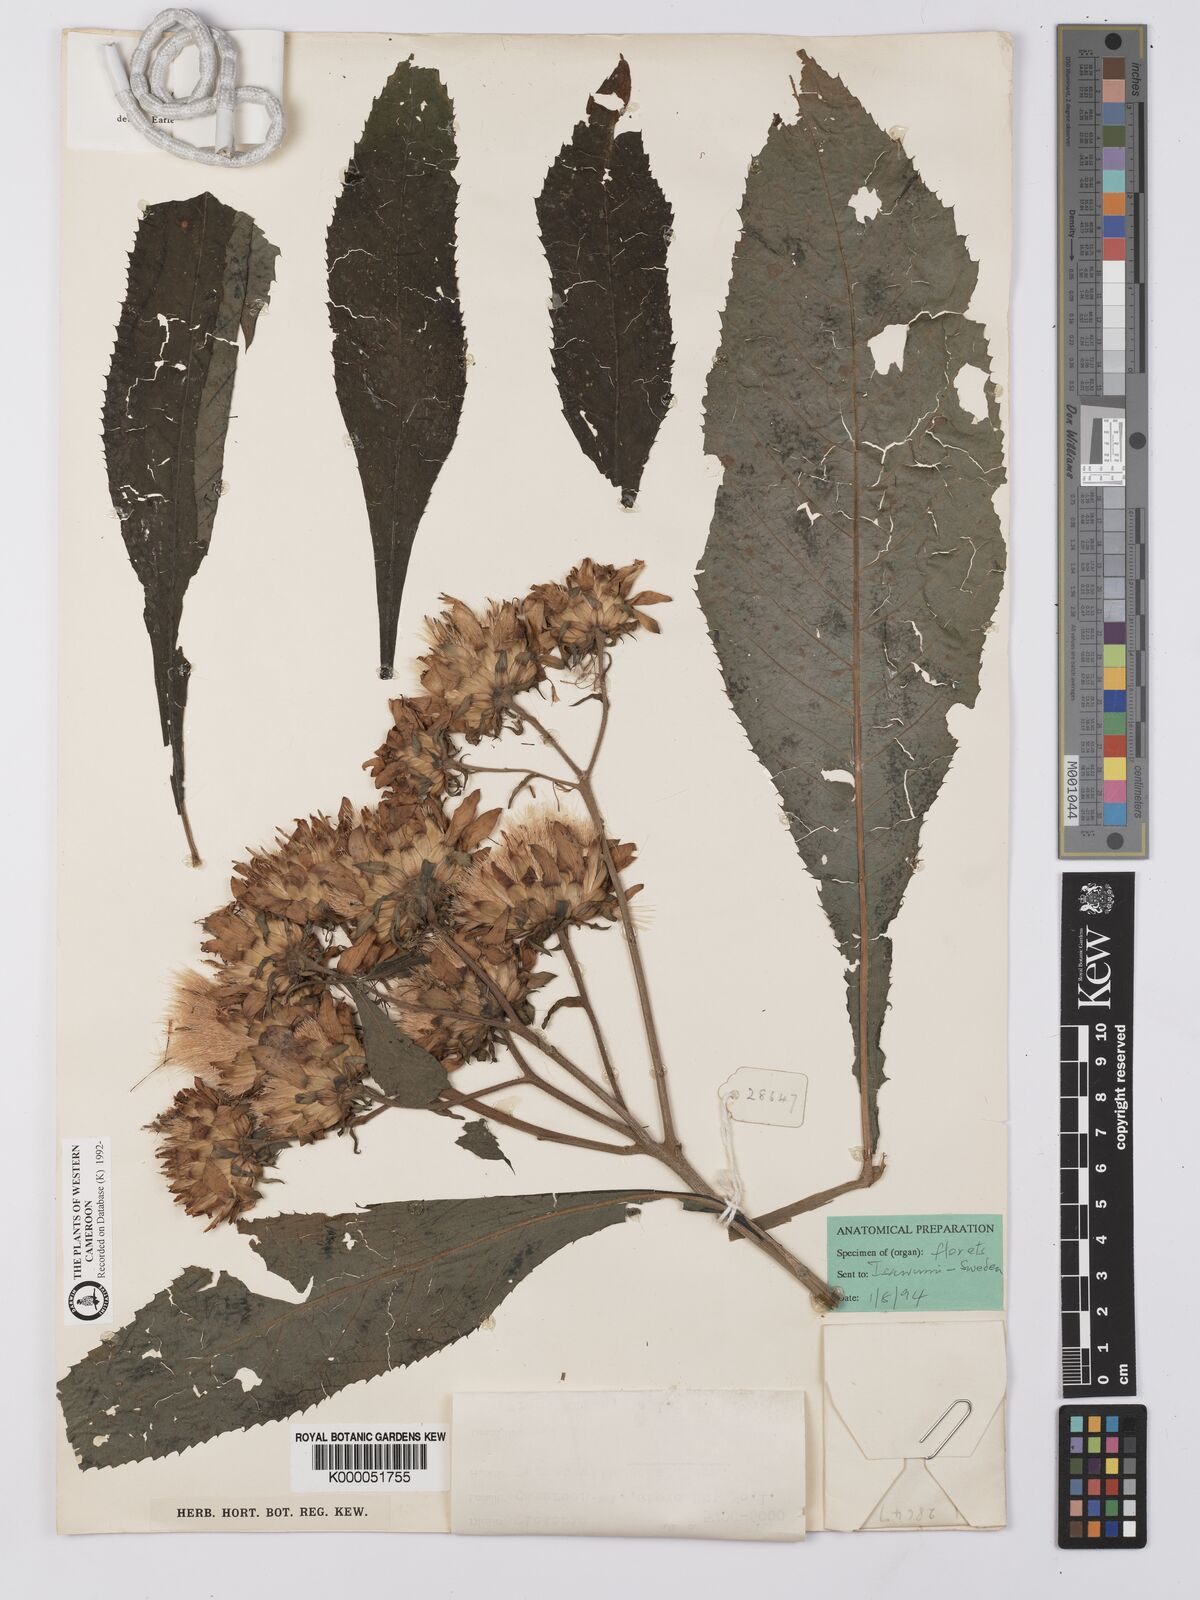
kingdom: Plantae
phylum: Tracheophyta
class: Magnoliopsida
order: Asterales
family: Asteraceae
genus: Baccharoides
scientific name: Baccharoides hymenolepis
